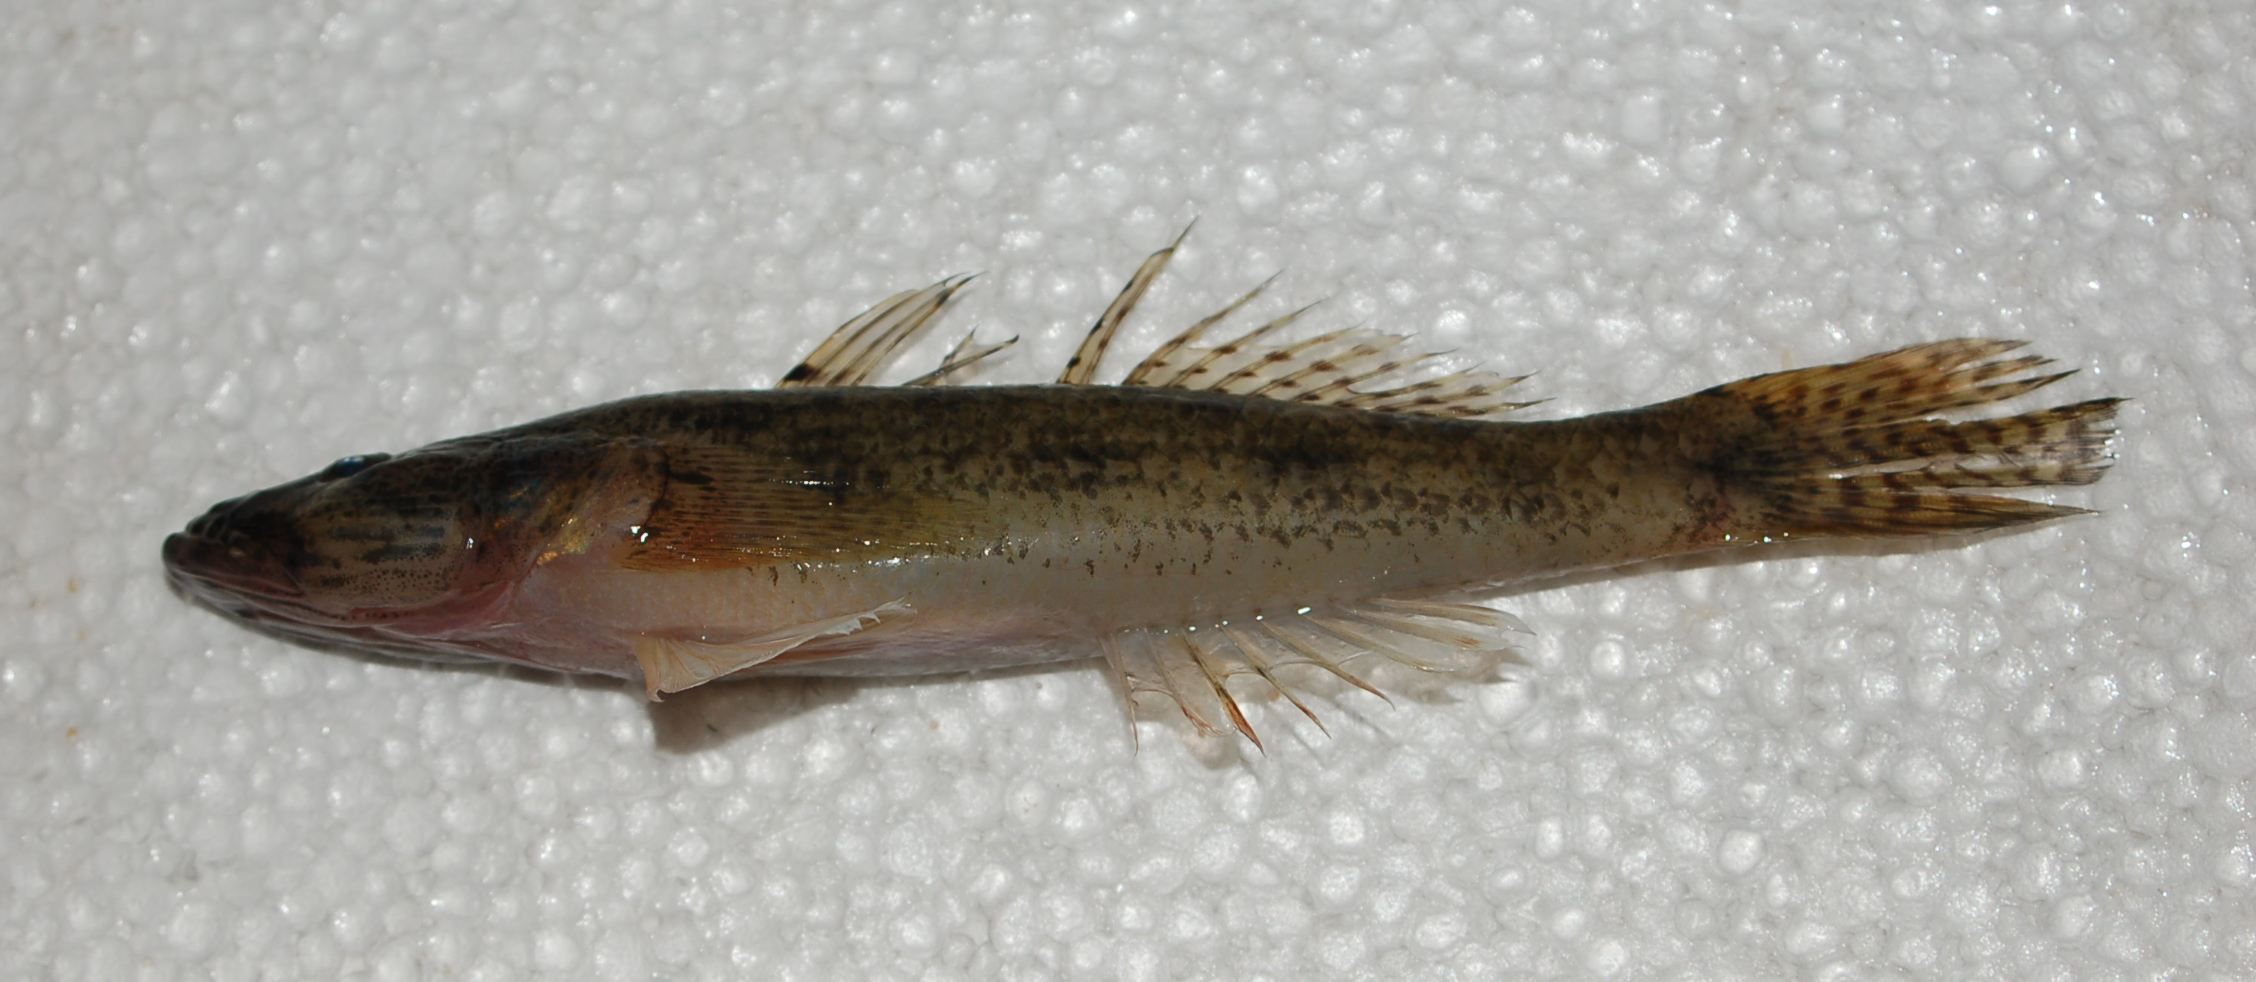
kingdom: Animalia
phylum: Chordata
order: Perciformes
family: Gobiidae
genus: Glossogobius
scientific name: Glossogobius giuris
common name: Tank goby
